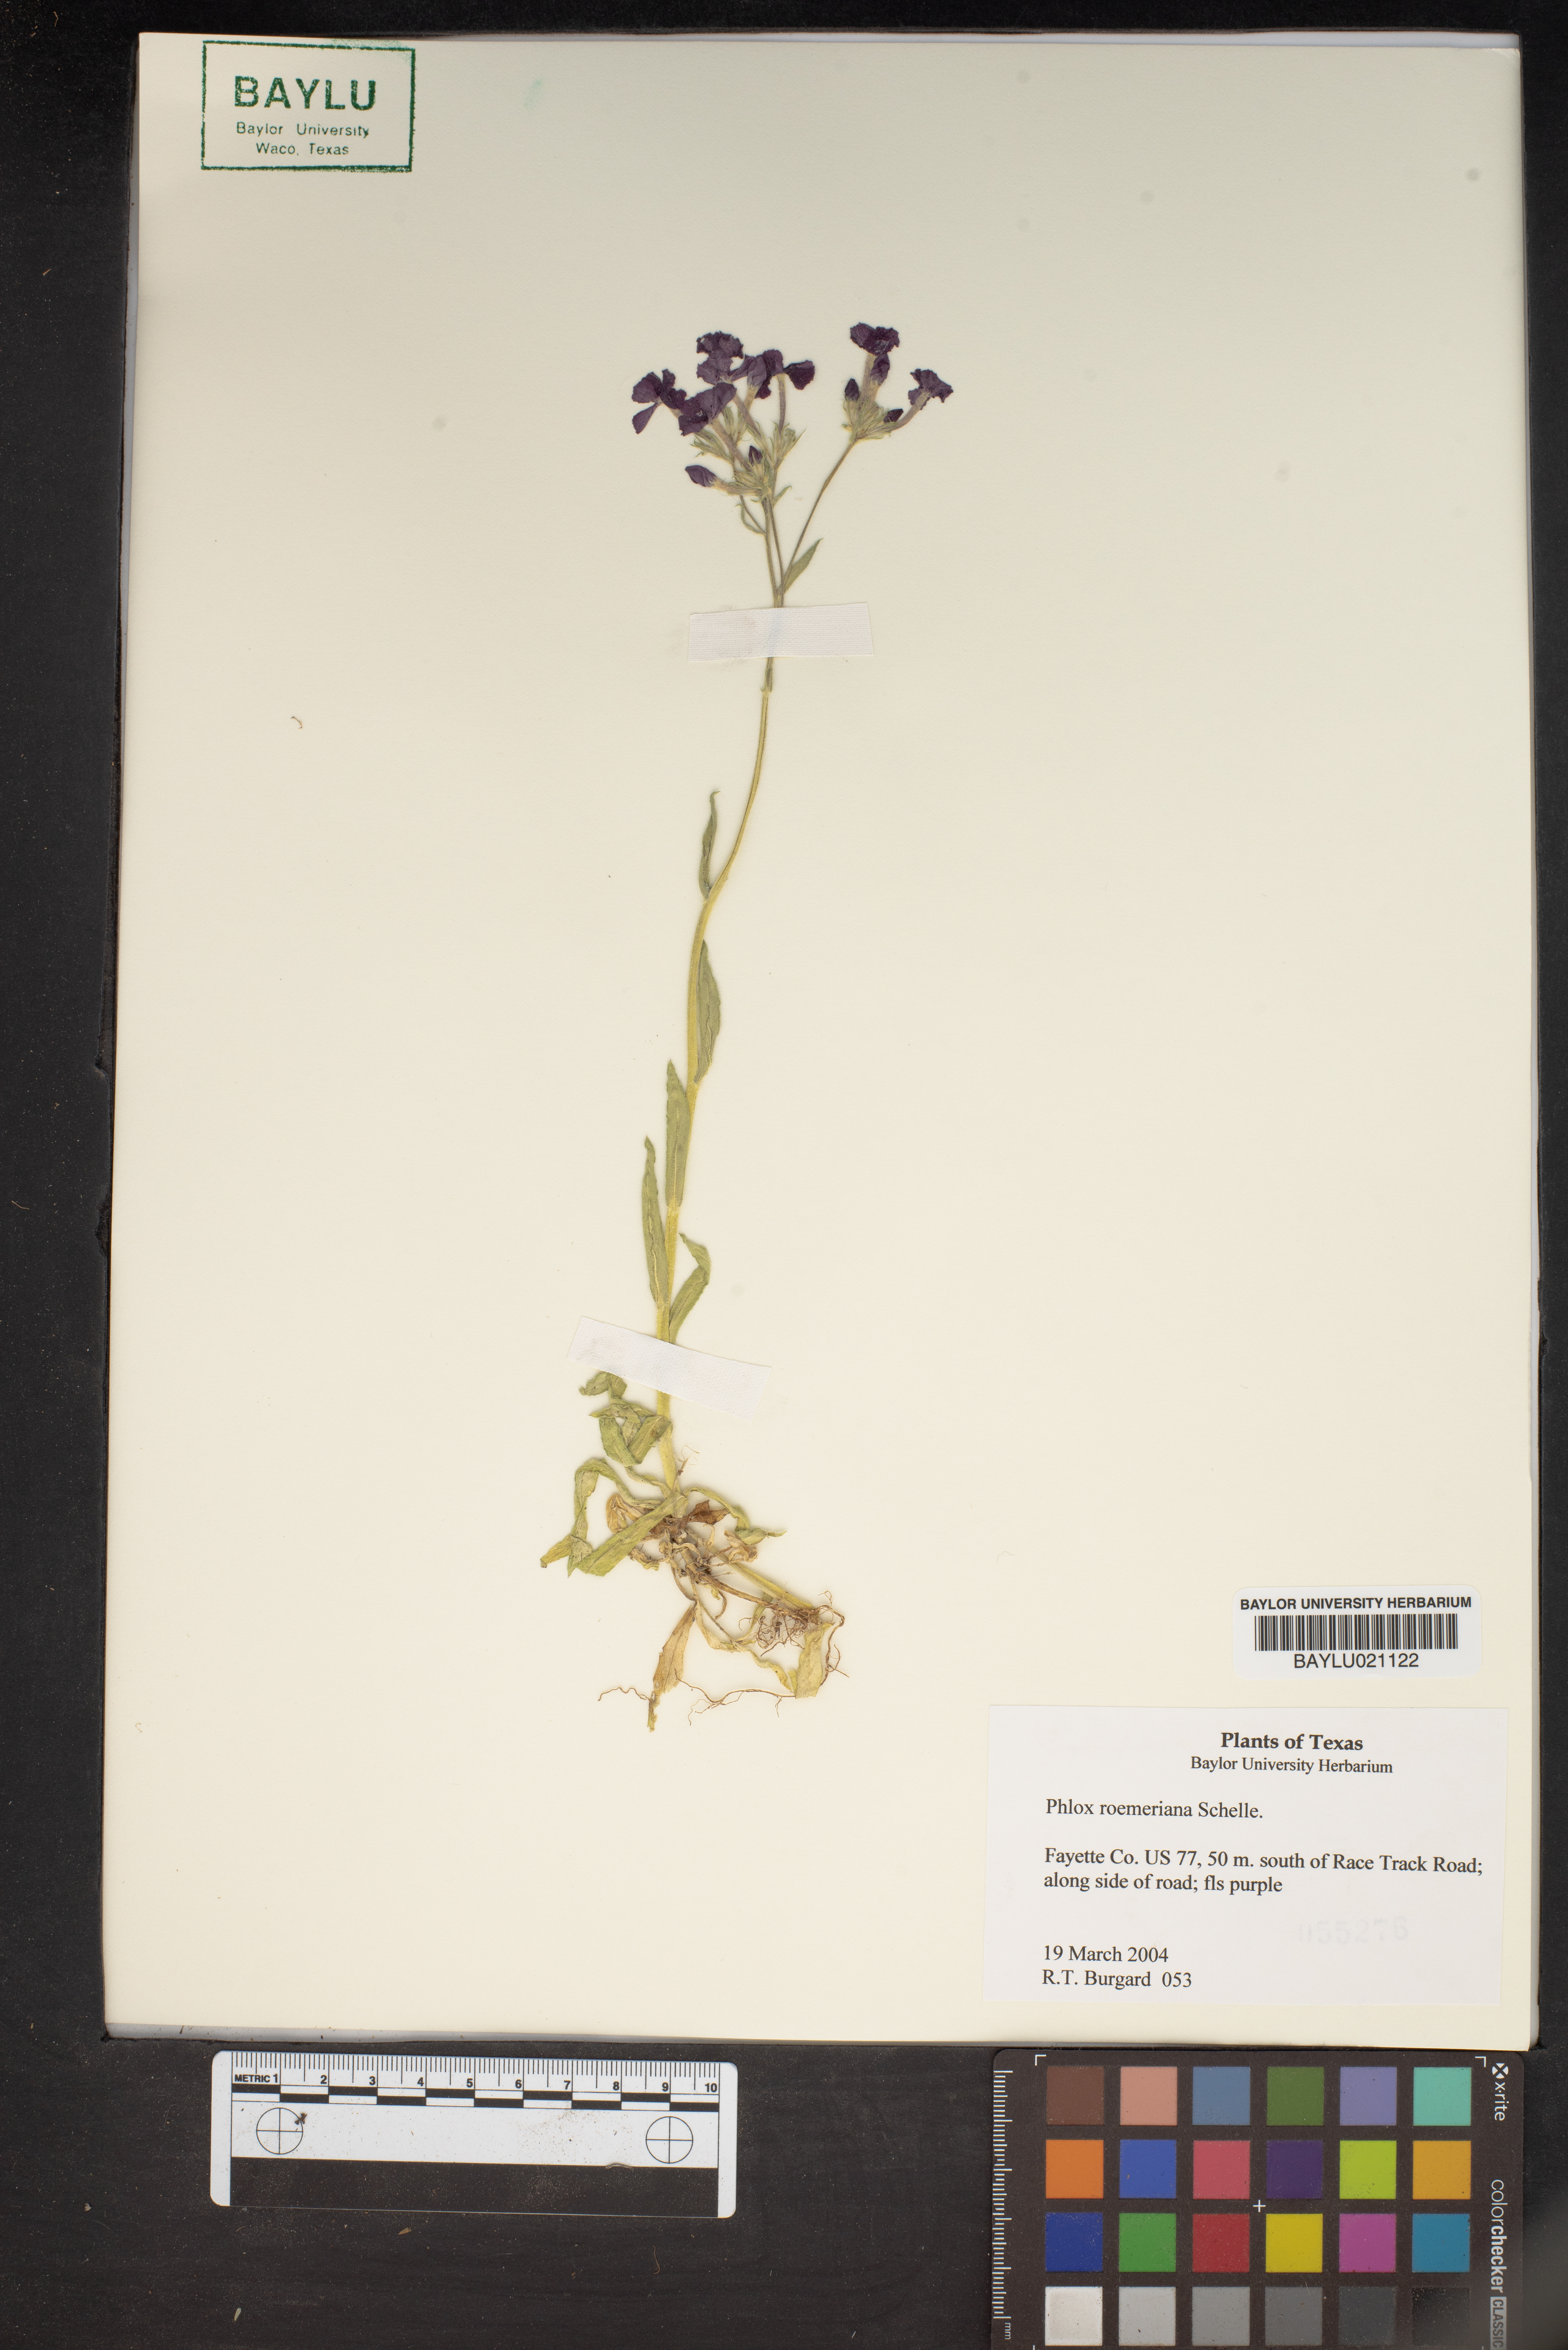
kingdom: Plantae
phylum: Tracheophyta
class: Magnoliopsida
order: Ericales
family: Polemoniaceae
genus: Phlox
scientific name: Phlox roemeriana
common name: Roemer's phlox
